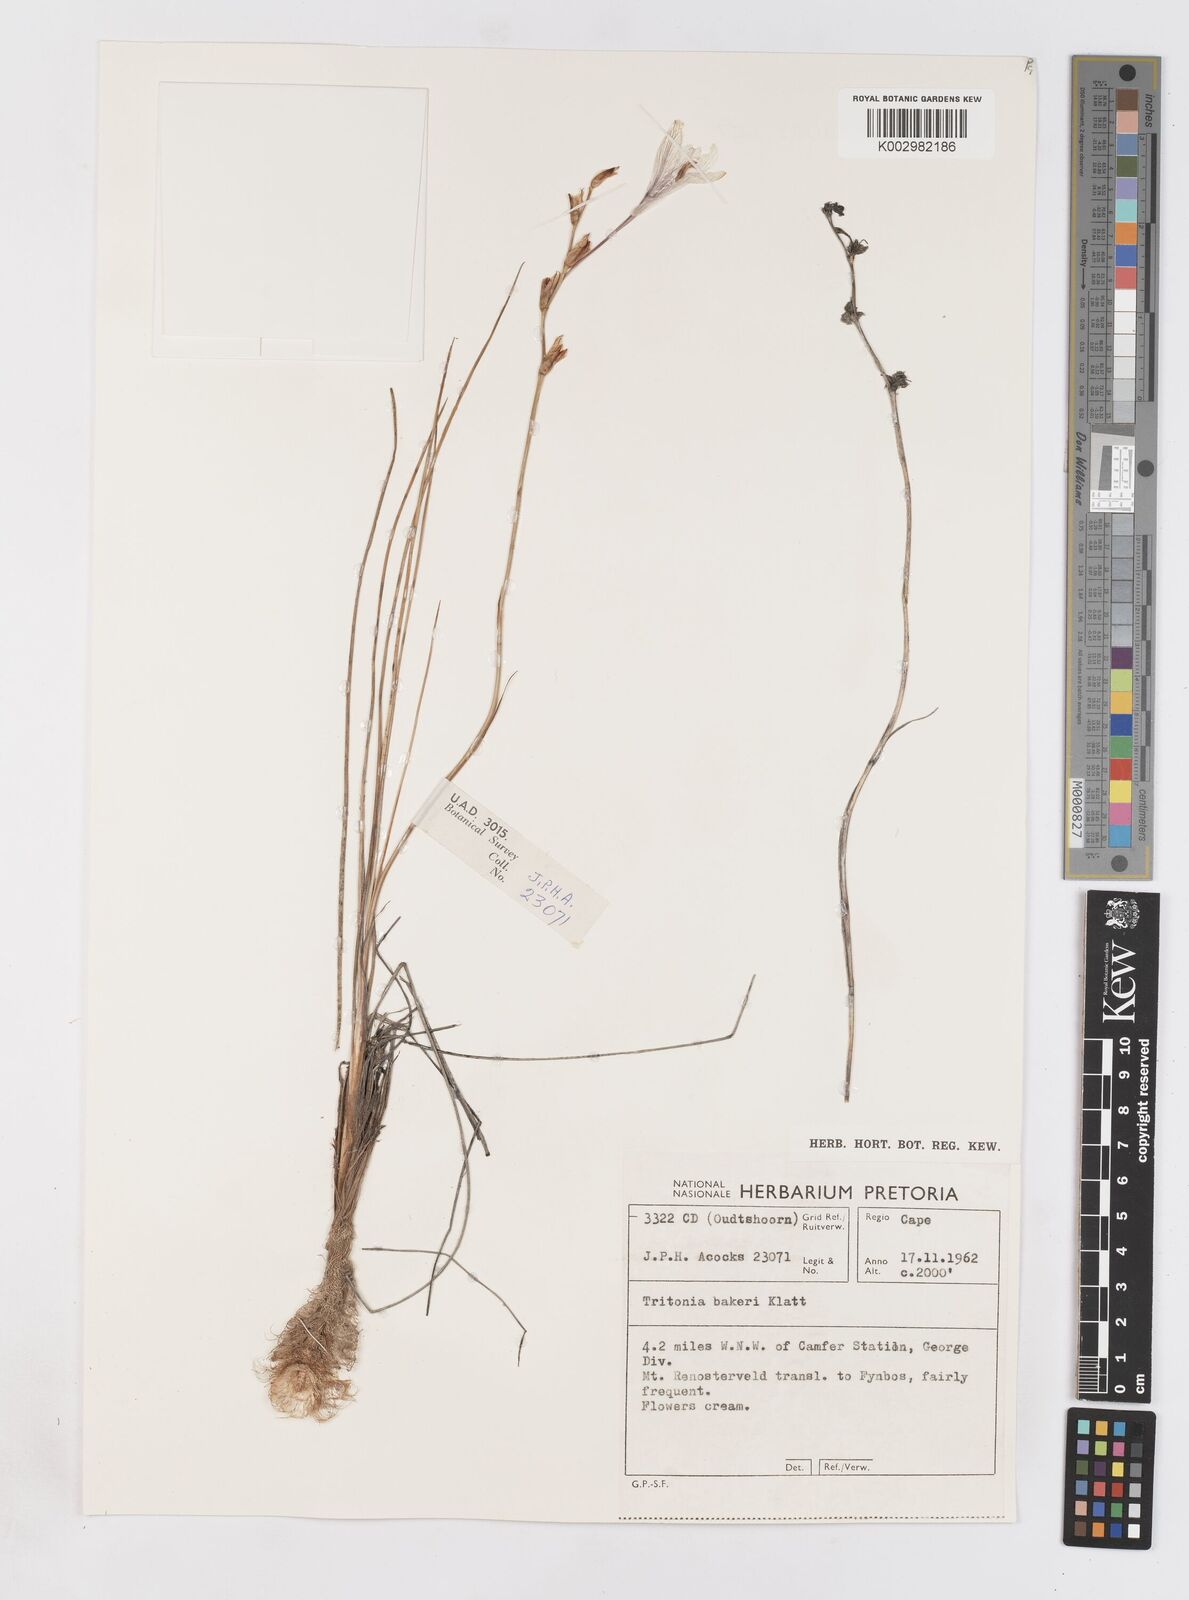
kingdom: Plantae
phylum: Tracheophyta
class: Liliopsida
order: Asparagales
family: Iridaceae
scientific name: Iridaceae
